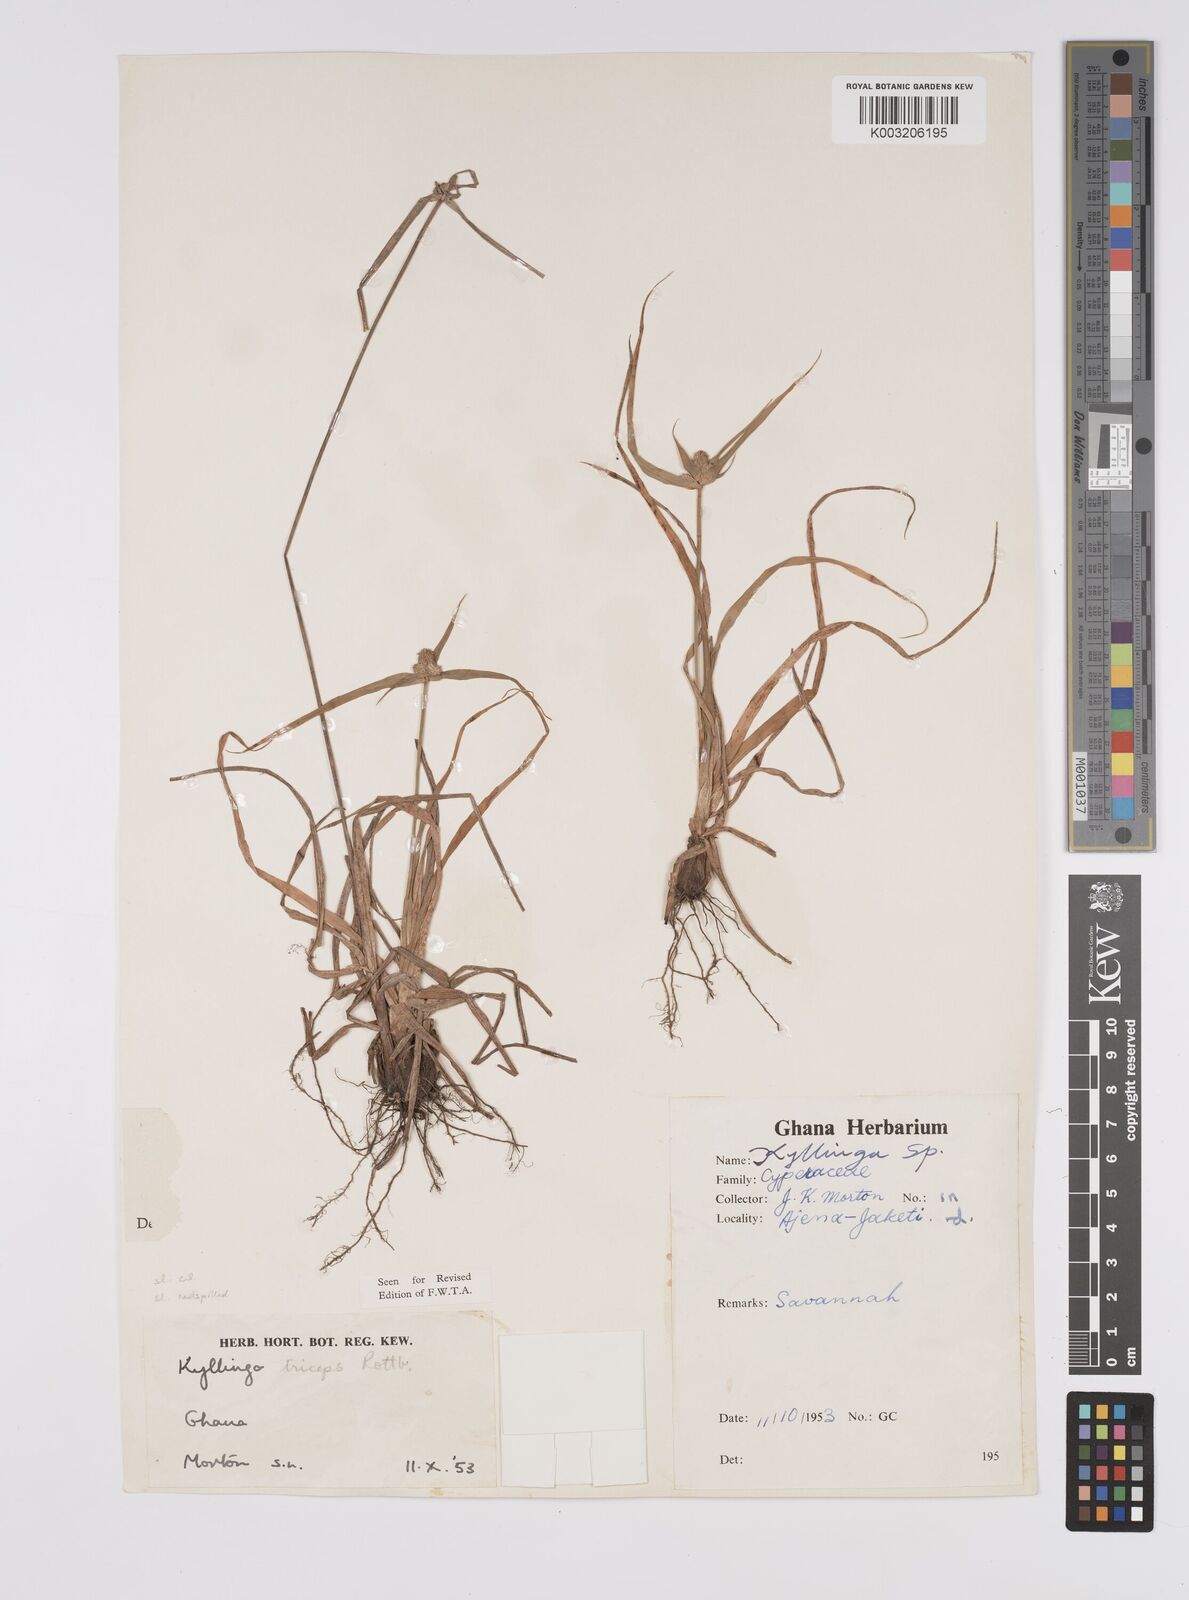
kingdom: Plantae
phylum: Tracheophyta
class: Liliopsida
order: Poales
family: Cyperaceae
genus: Cyperus
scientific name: Cyperus
